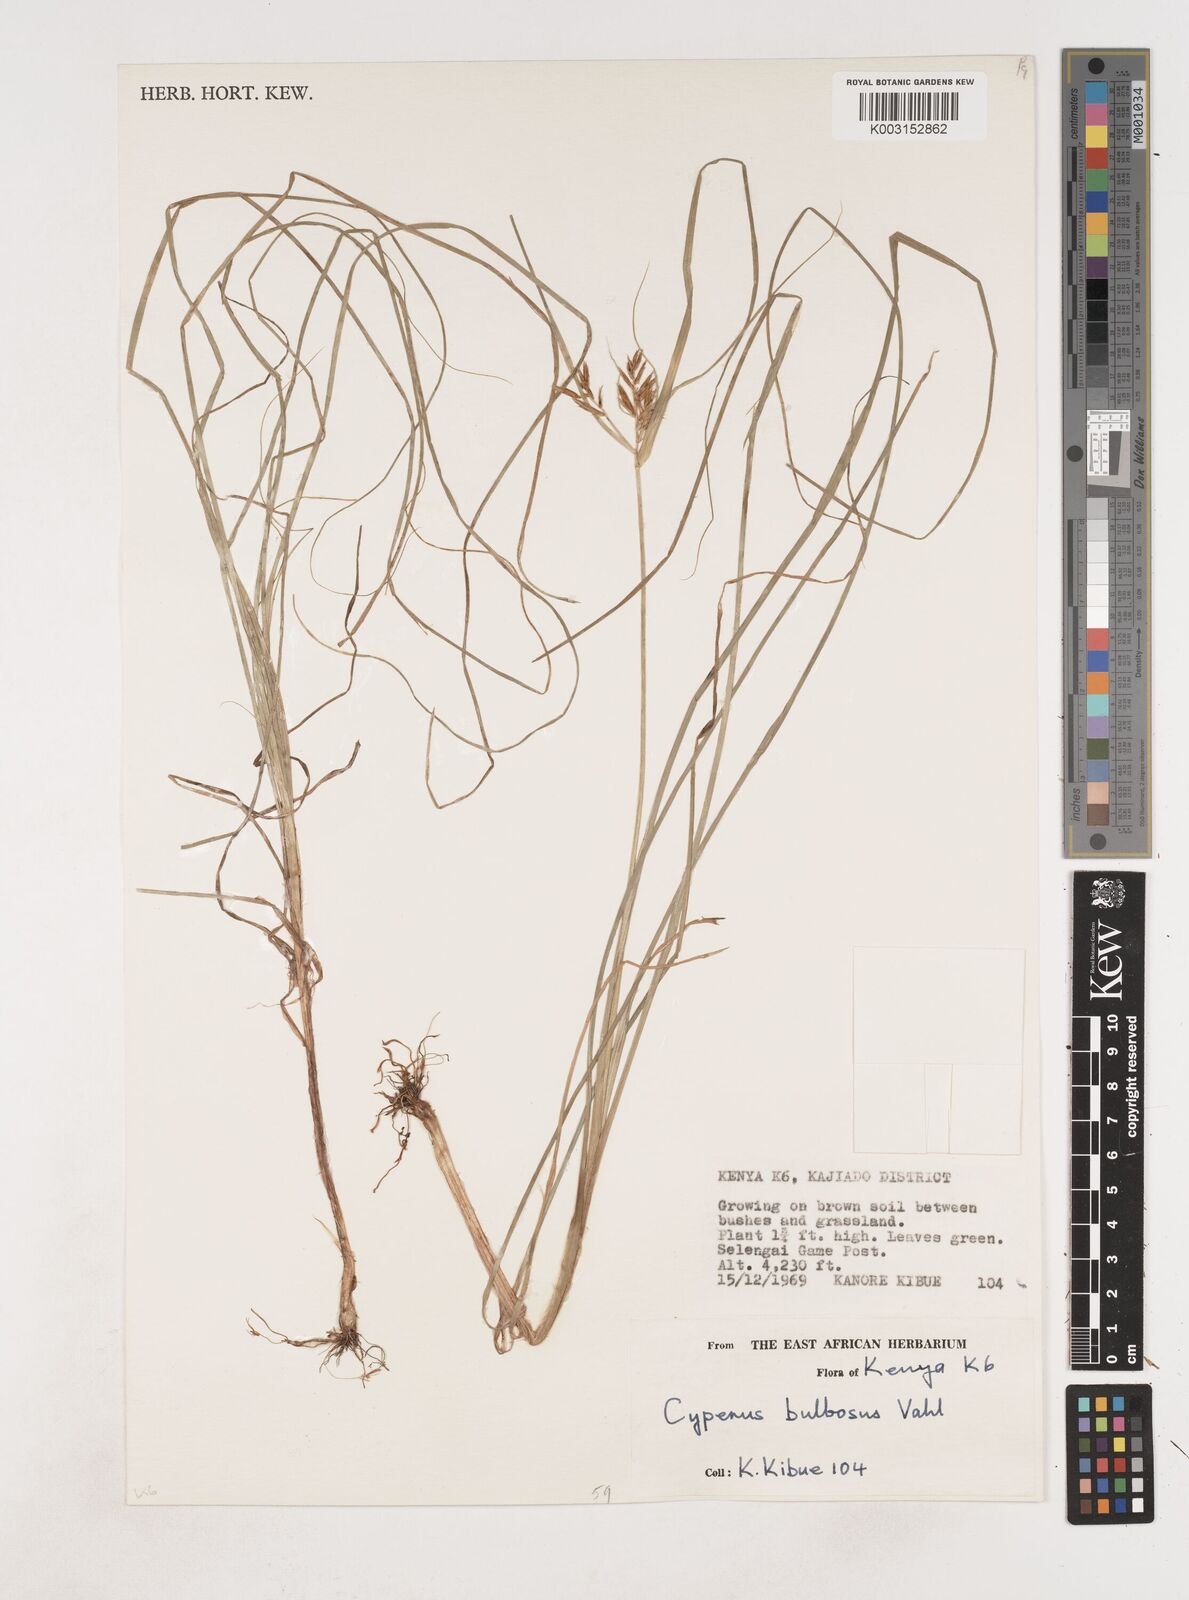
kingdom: Plantae
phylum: Tracheophyta
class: Liliopsida
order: Poales
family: Cyperaceae
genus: Cyperus
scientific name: Cyperus bulbosus
